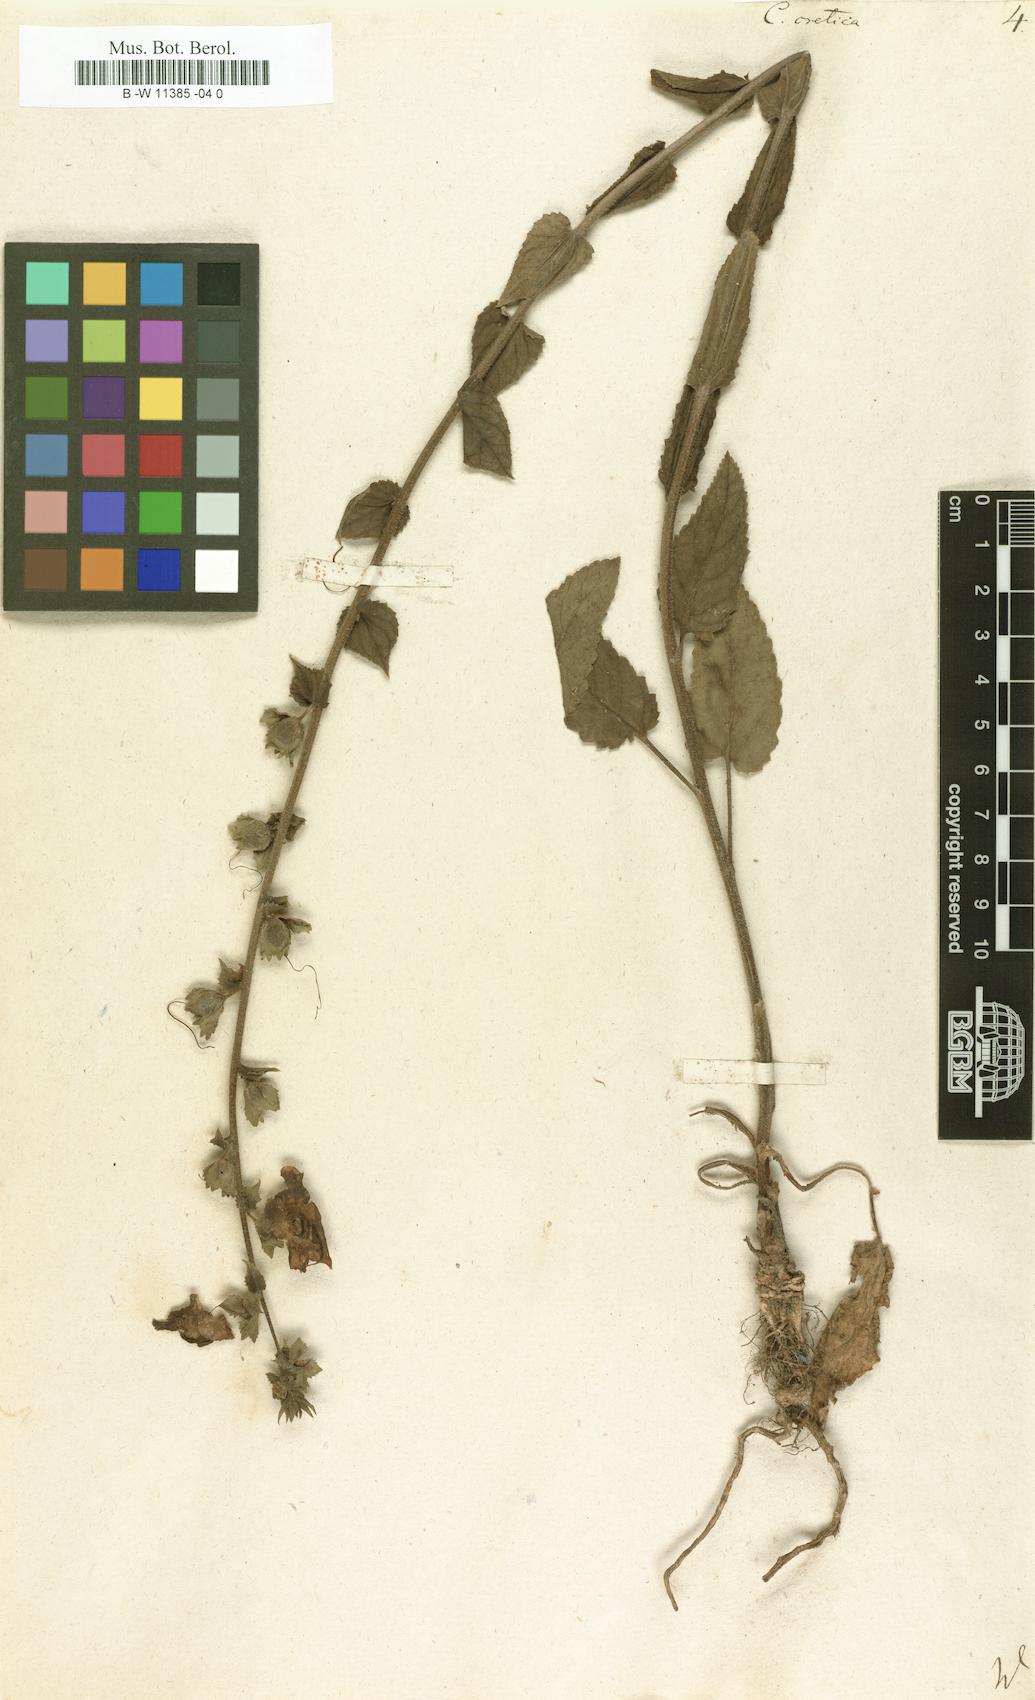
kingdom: Plantae
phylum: Tracheophyta
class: Magnoliopsida
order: Lamiales
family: Scrophulariaceae
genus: Verbascum
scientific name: Verbascum creticum
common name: Cretan mullein
